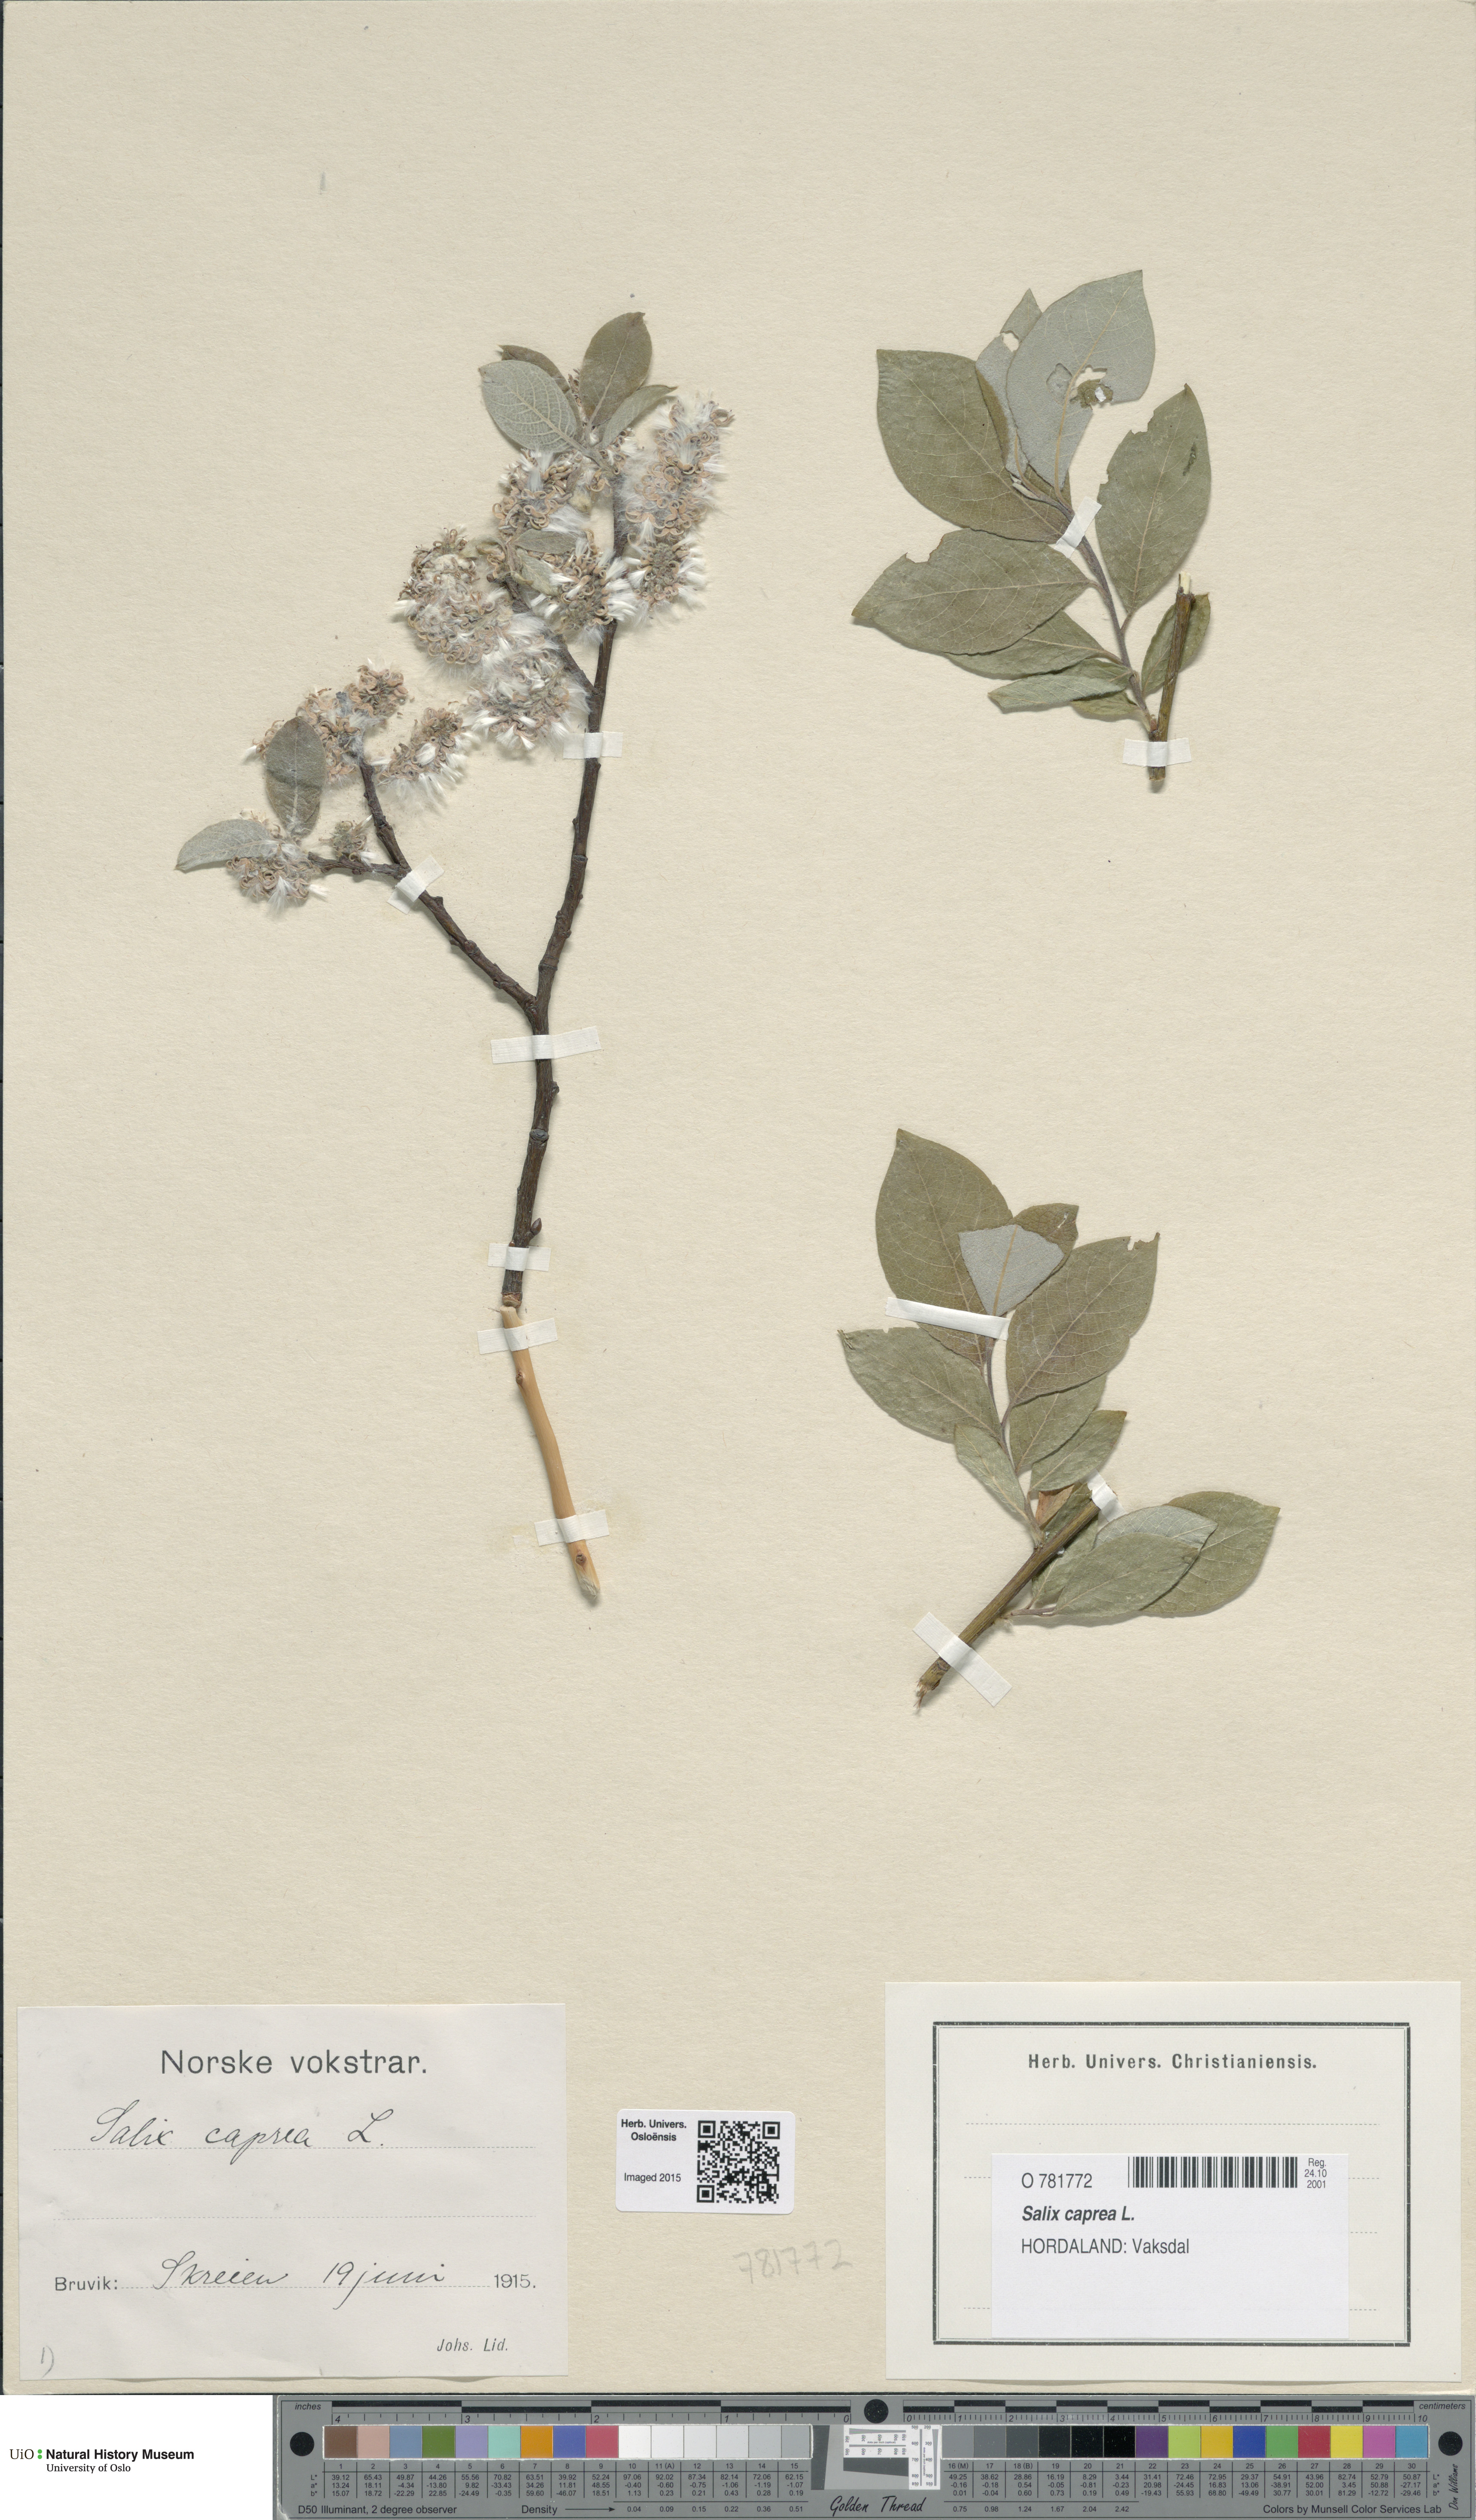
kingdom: Plantae
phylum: Tracheophyta
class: Magnoliopsida
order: Malpighiales
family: Salicaceae
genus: Salix
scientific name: Salix caprea
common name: Goat willow
